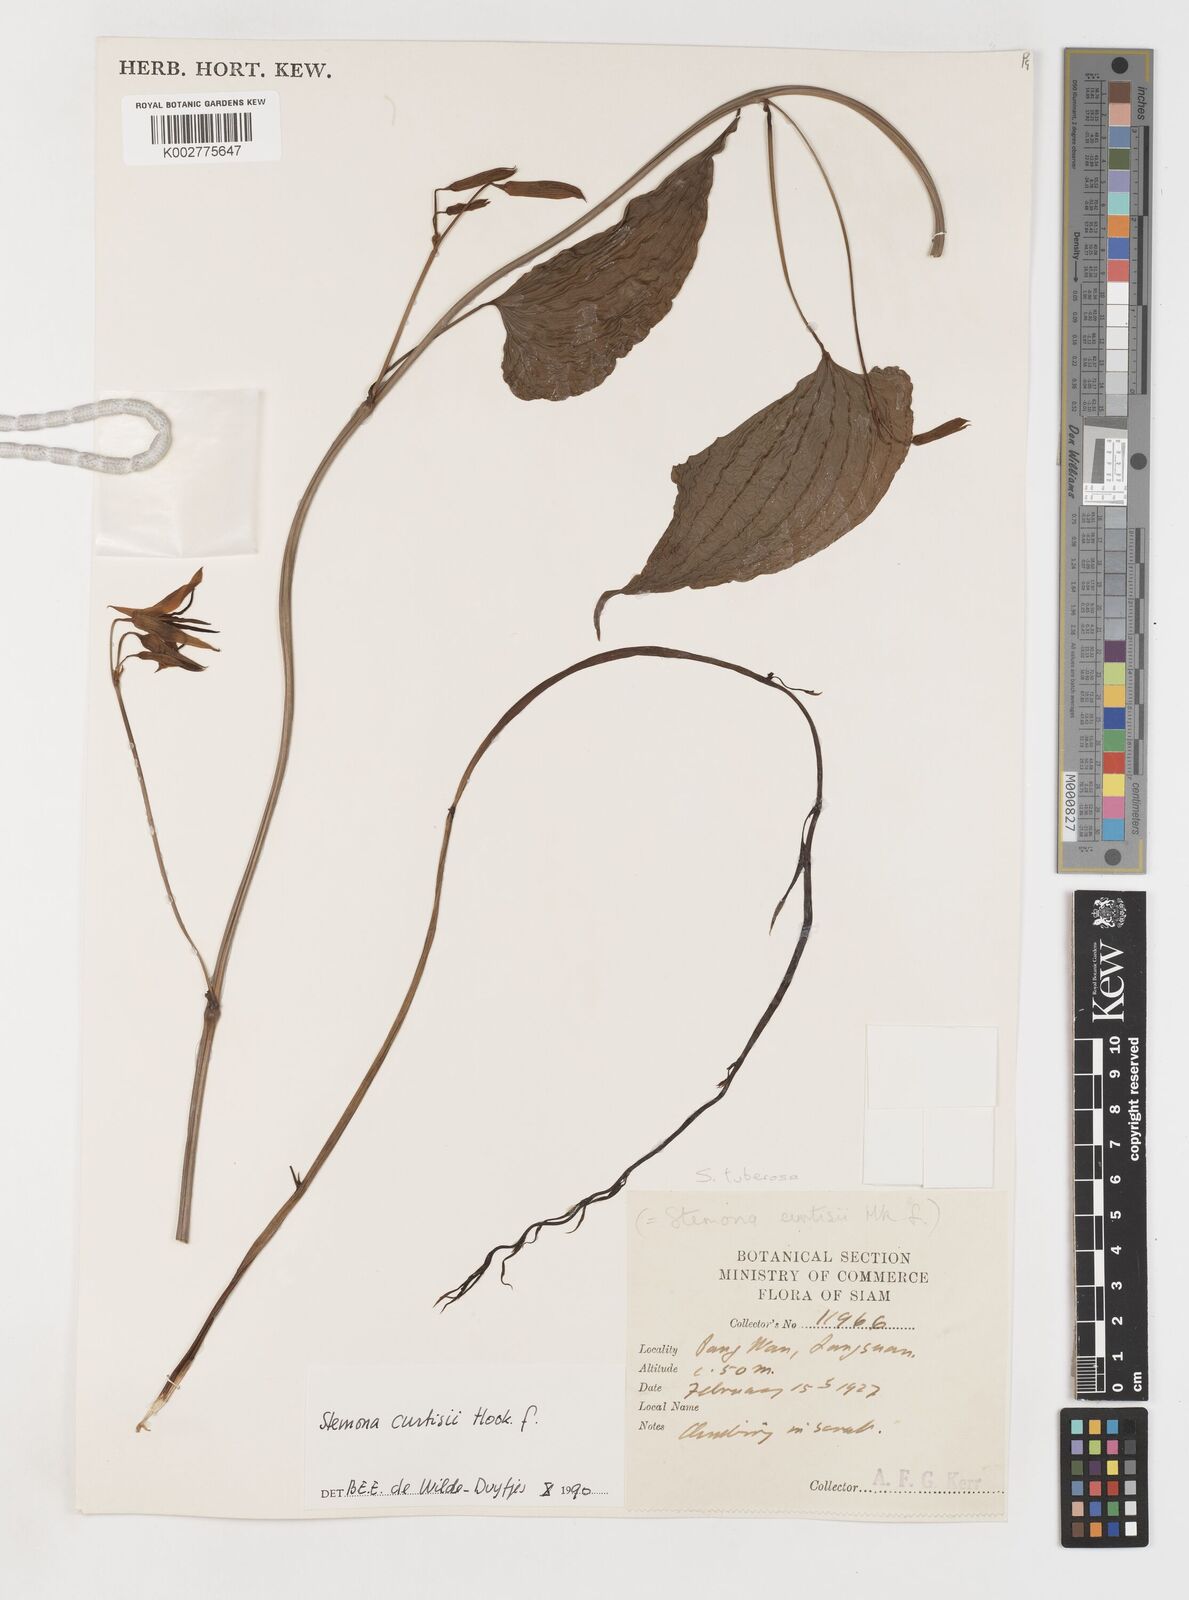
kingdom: Plantae
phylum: Tracheophyta
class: Liliopsida
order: Pandanales
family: Stemonaceae
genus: Stemona
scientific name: Stemona curtisii
